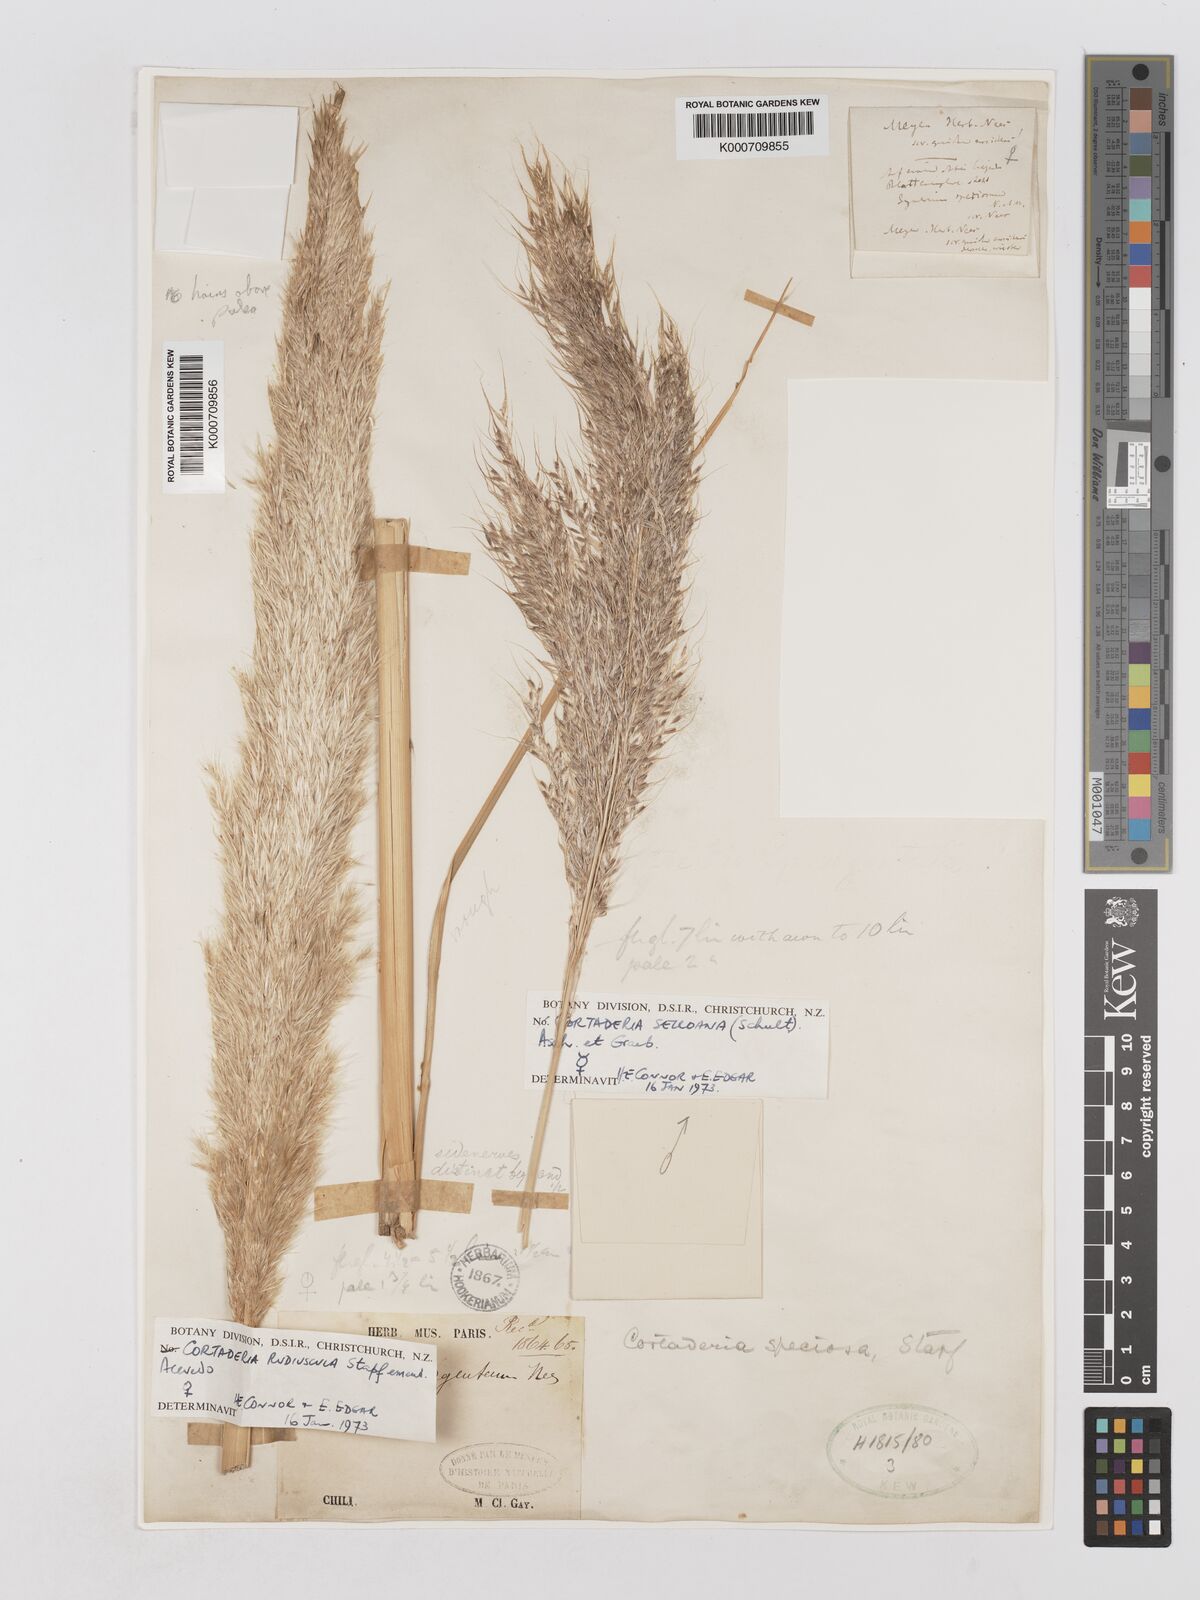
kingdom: Plantae
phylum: Tracheophyta
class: Liliopsida
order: Poales
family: Poaceae
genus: Cortaderia
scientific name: Cortaderia rudiuscula
